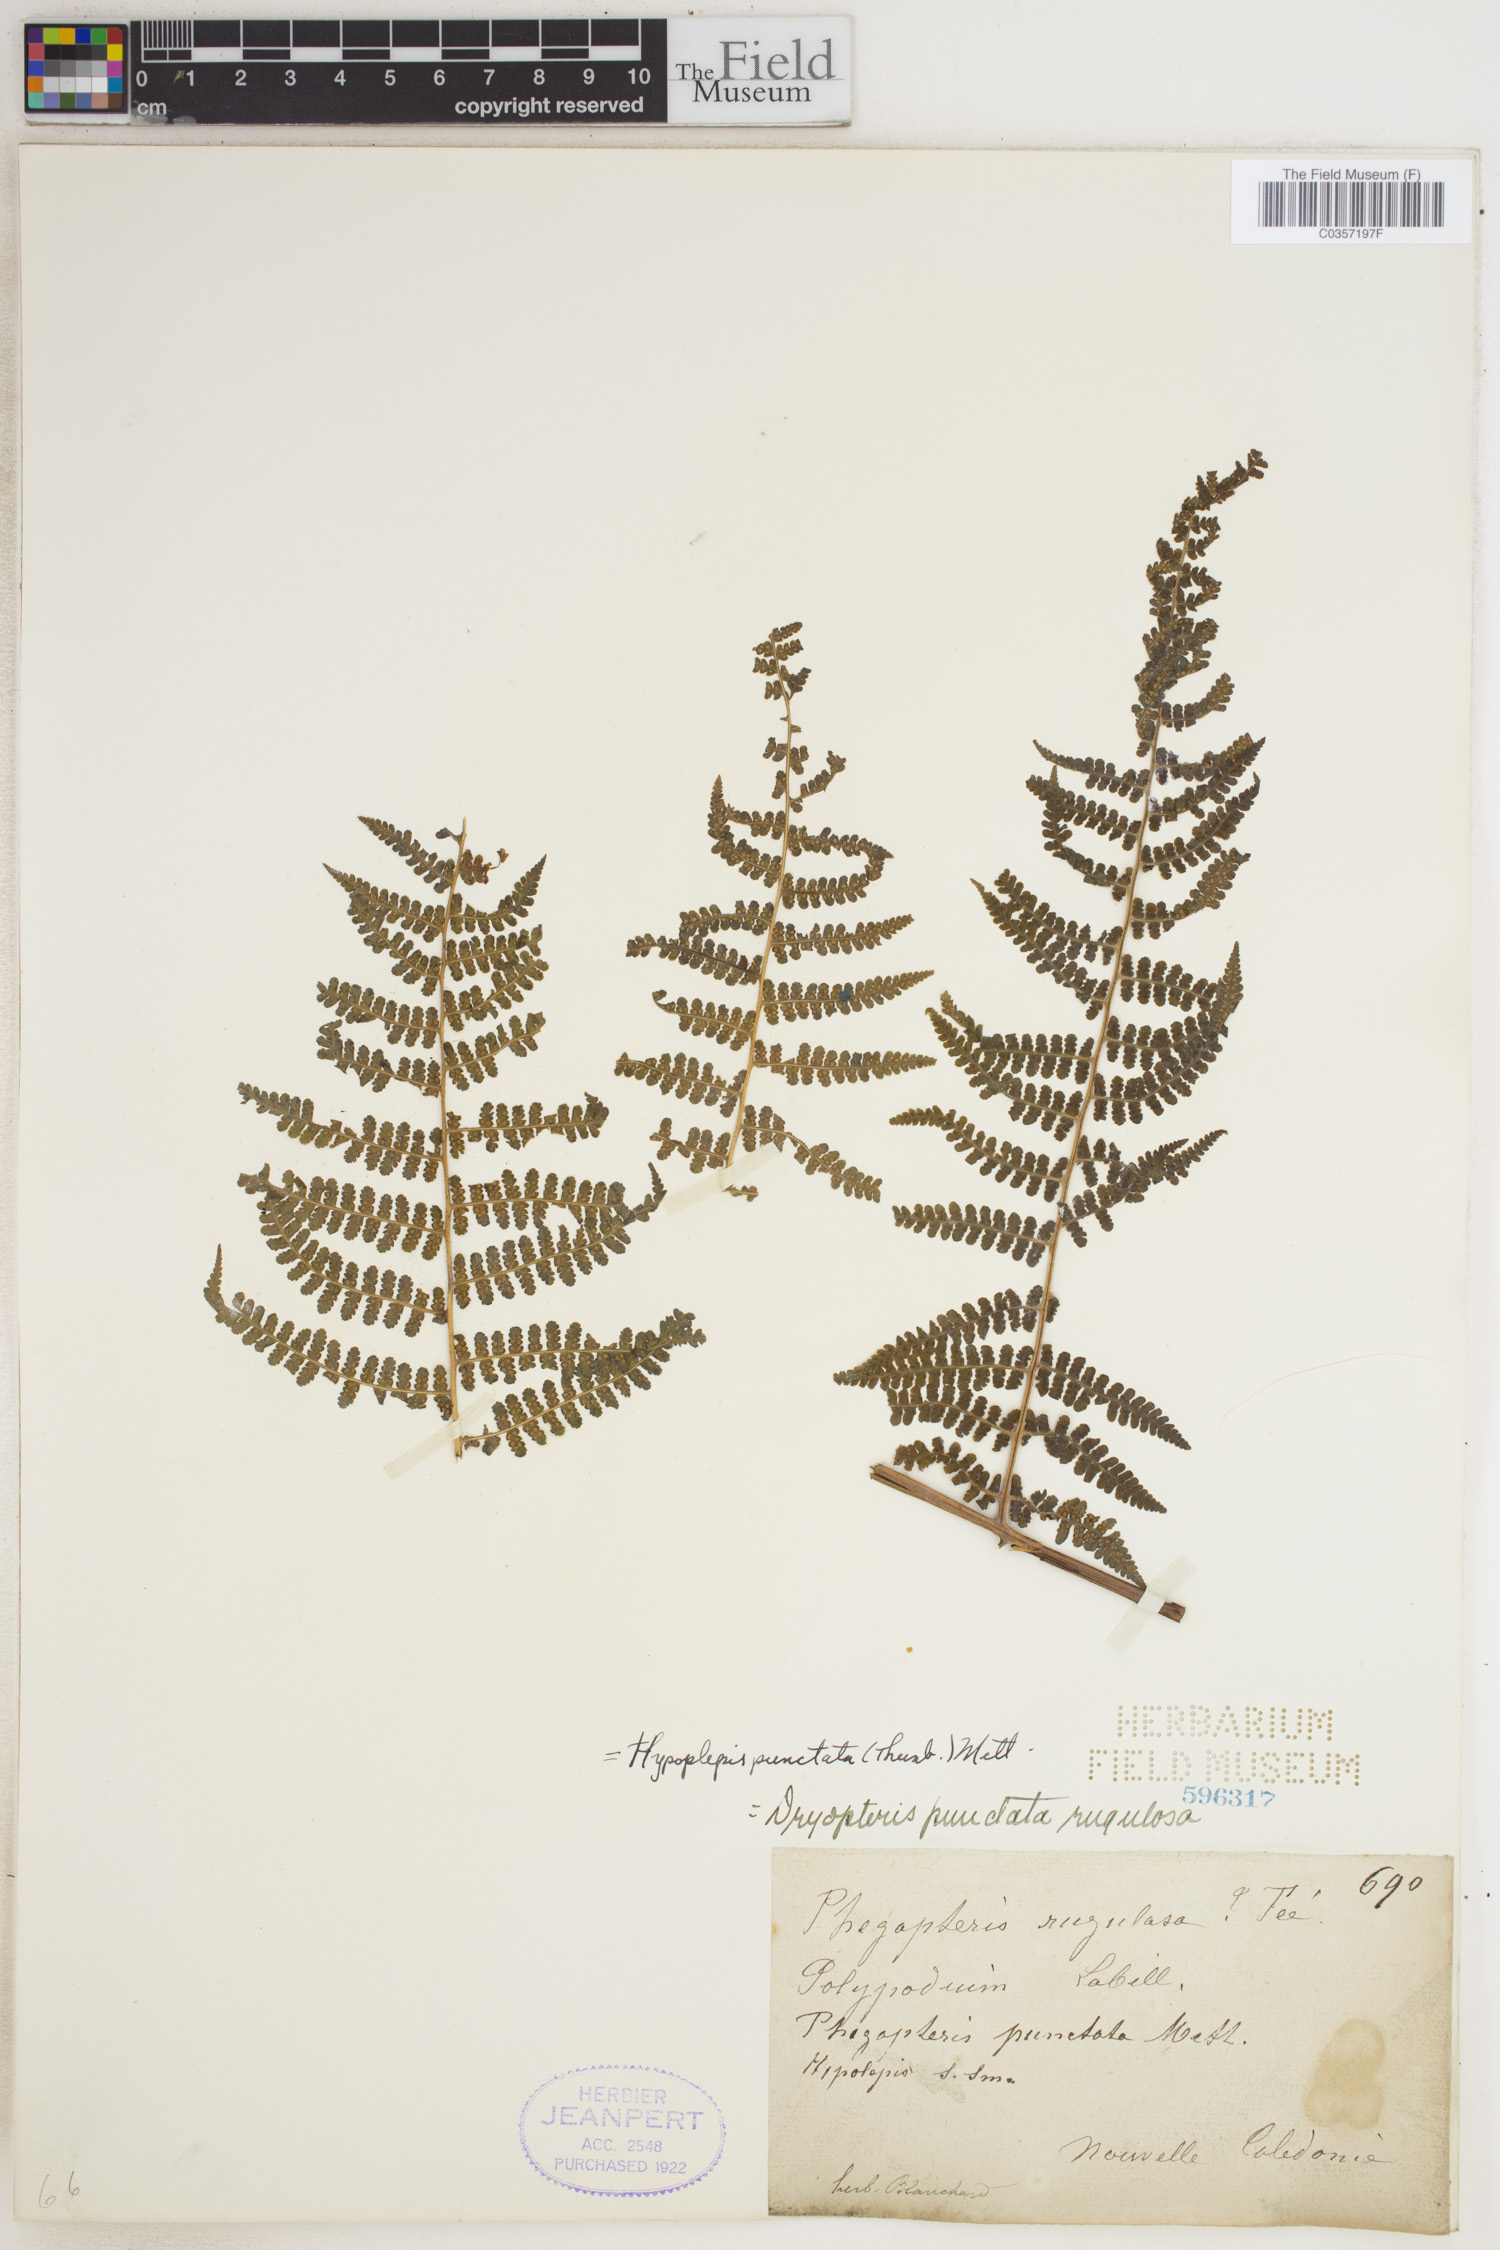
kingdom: Plantae
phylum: Tracheophyta
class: Polypodiopsida
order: Polypodiales
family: Dennstaedtiaceae
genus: Hypolepis
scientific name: Hypolepis punctata
